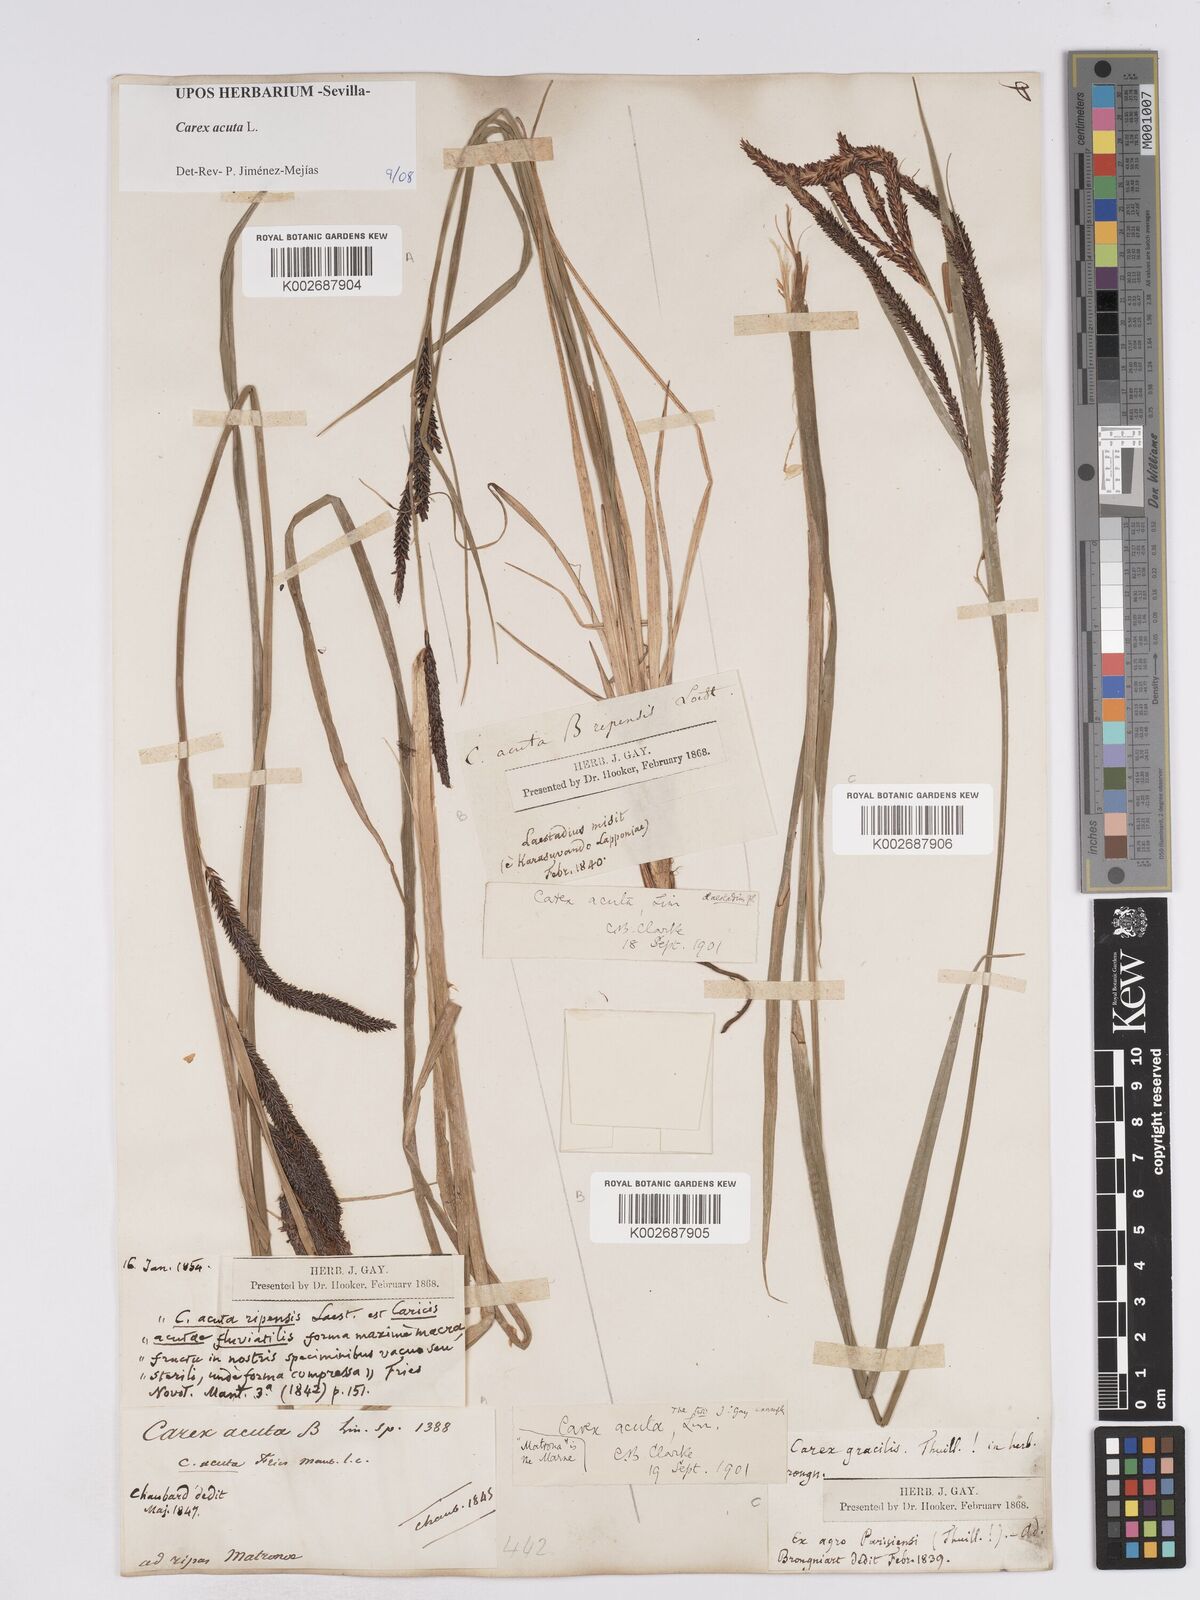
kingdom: Plantae
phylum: Tracheophyta
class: Liliopsida
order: Poales
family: Cyperaceae
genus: Carex
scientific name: Carex acuta
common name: Slender tufted-sedge
